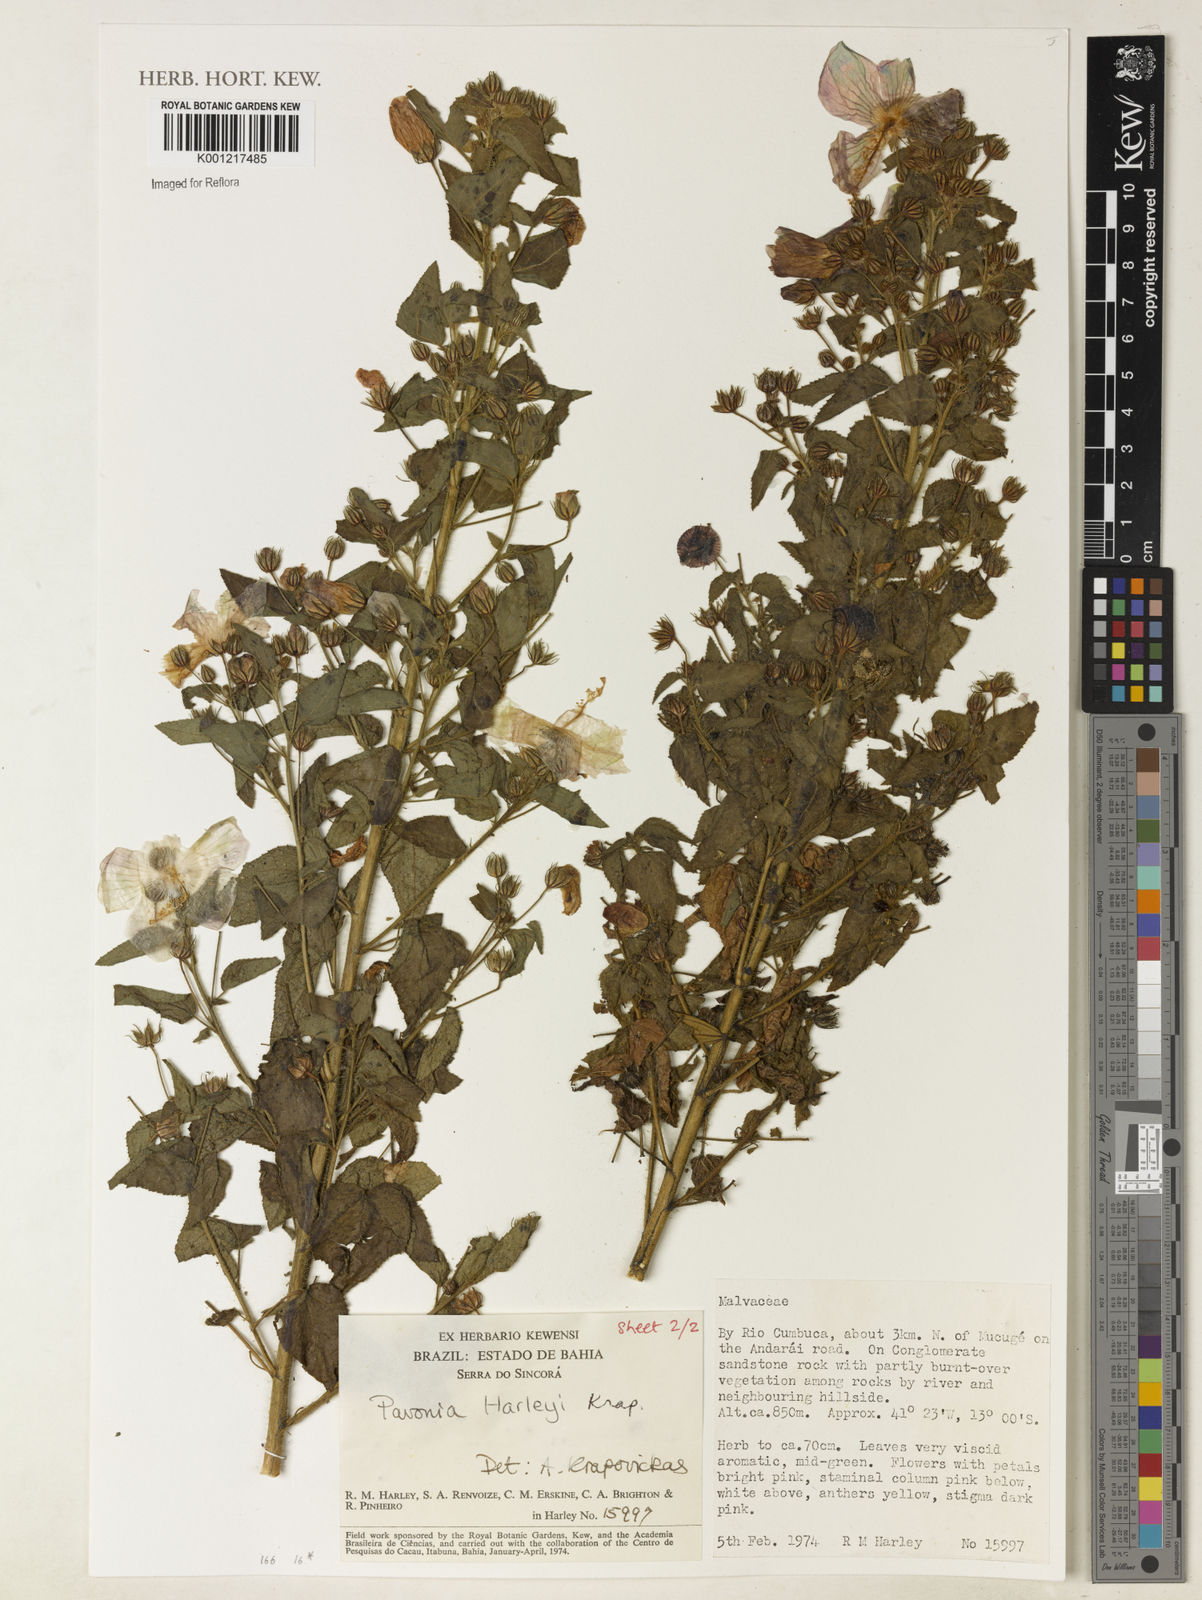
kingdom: Plantae
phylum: Tracheophyta
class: Magnoliopsida
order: Malvales
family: Malvaceae
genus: Pavonia
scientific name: Pavonia harleyi
